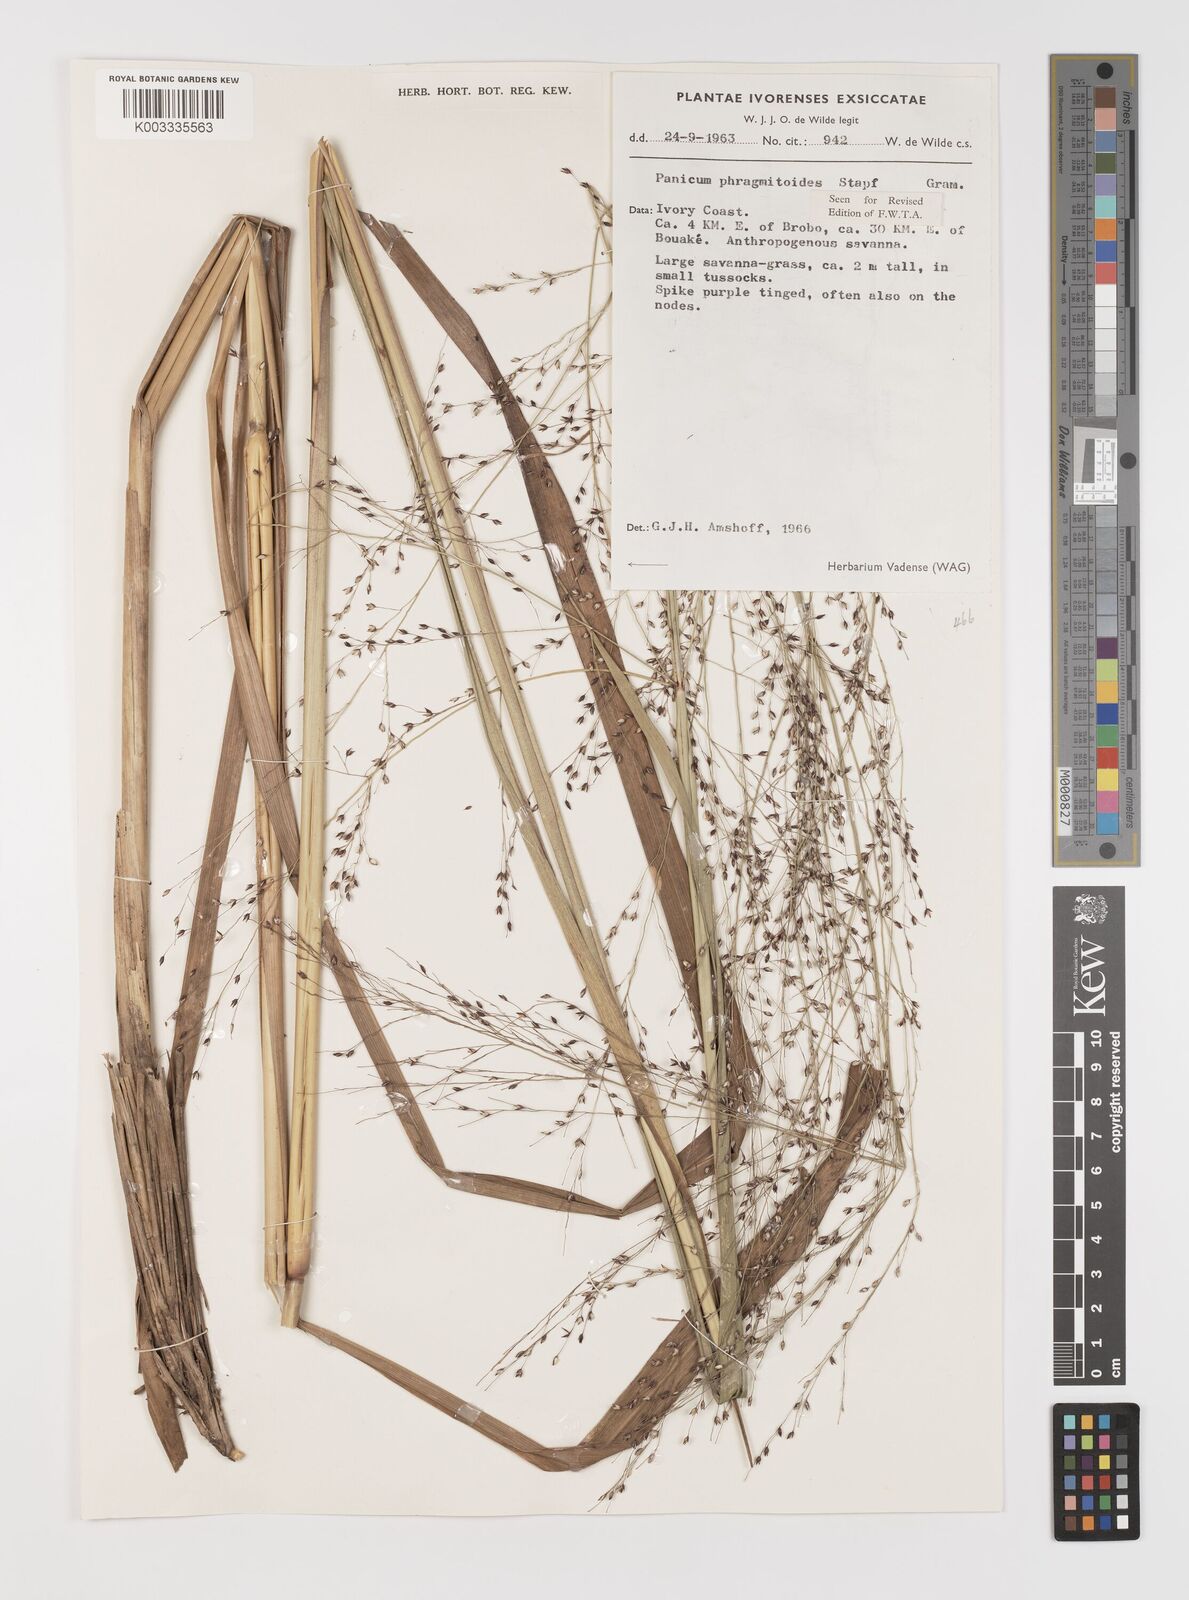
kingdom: Plantae
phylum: Tracheophyta
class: Liliopsida
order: Poales
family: Poaceae
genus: Panicum
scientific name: Panicum phragmitoides
